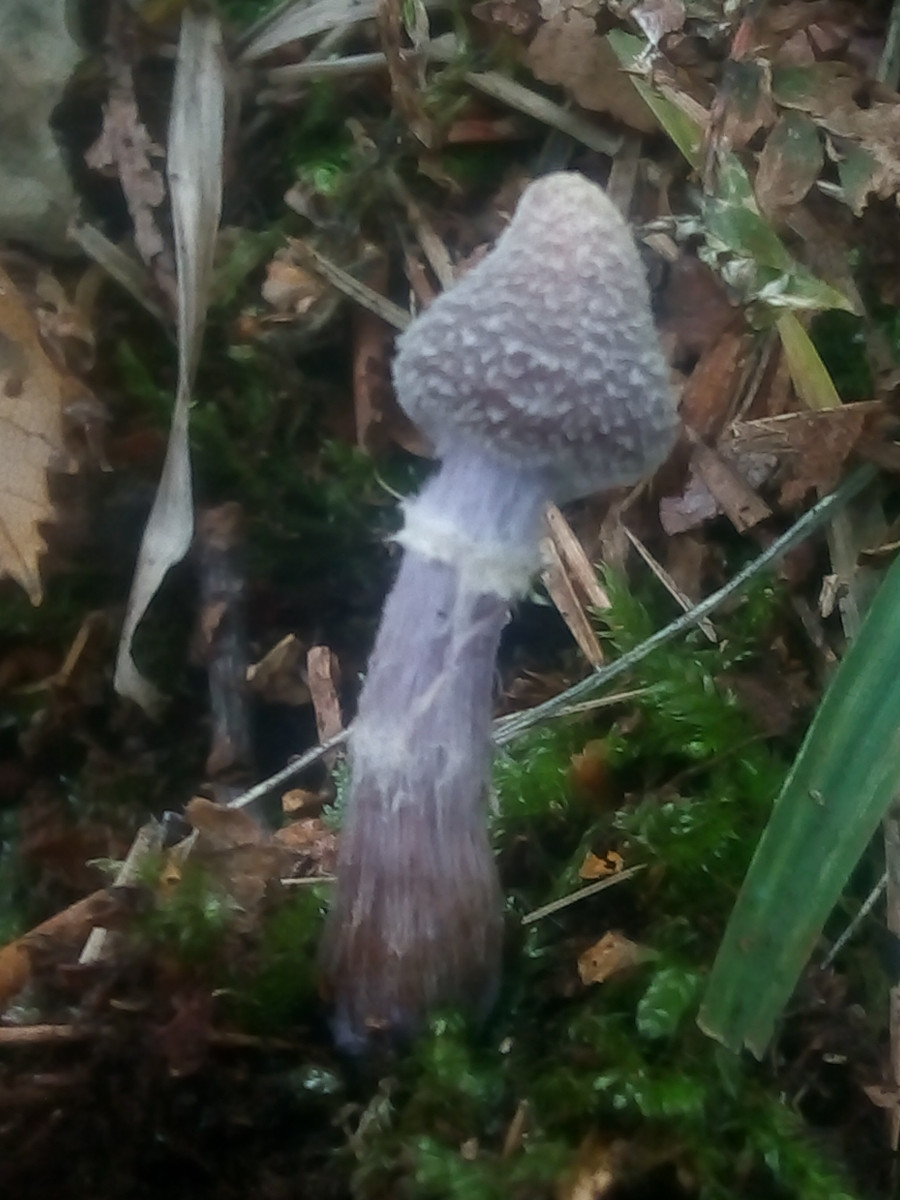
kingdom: Fungi
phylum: Basidiomycota
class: Agaricomycetes
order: Agaricales
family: Cortinariaceae
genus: Cortinarius
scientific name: Cortinarius flexipes
